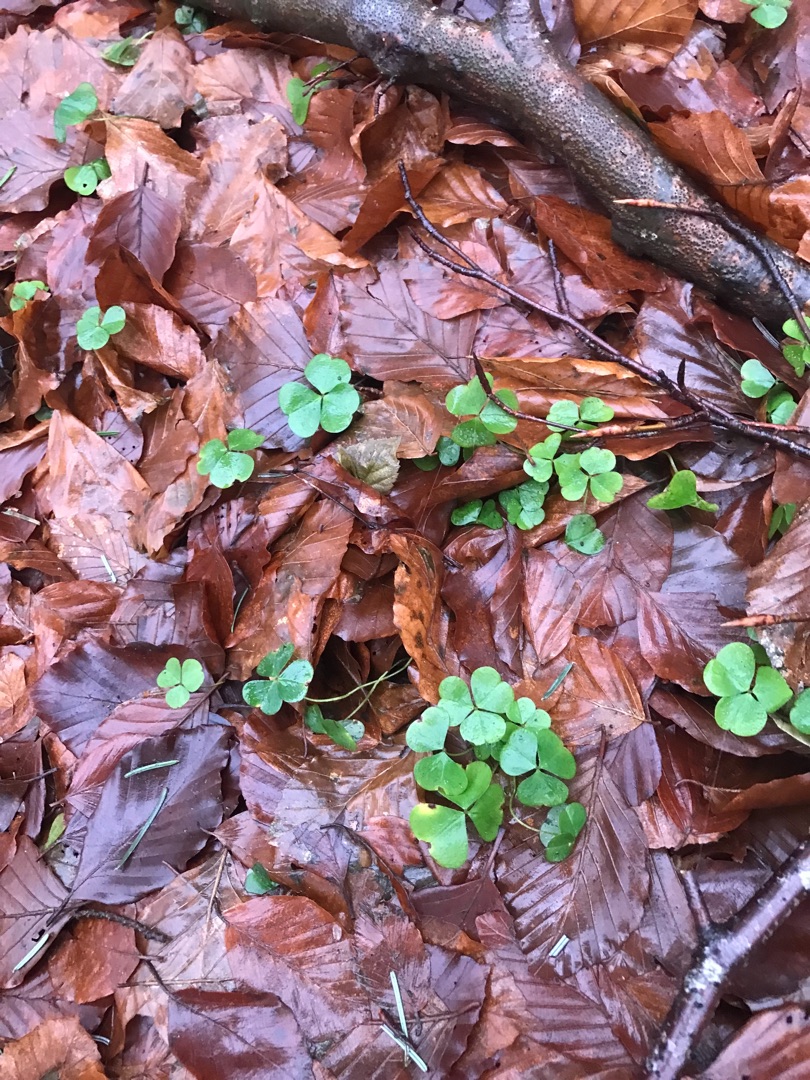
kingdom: Plantae
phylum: Tracheophyta
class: Magnoliopsida
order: Oxalidales
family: Oxalidaceae
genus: Oxalis
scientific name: Oxalis acetosella
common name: Skovsyre
